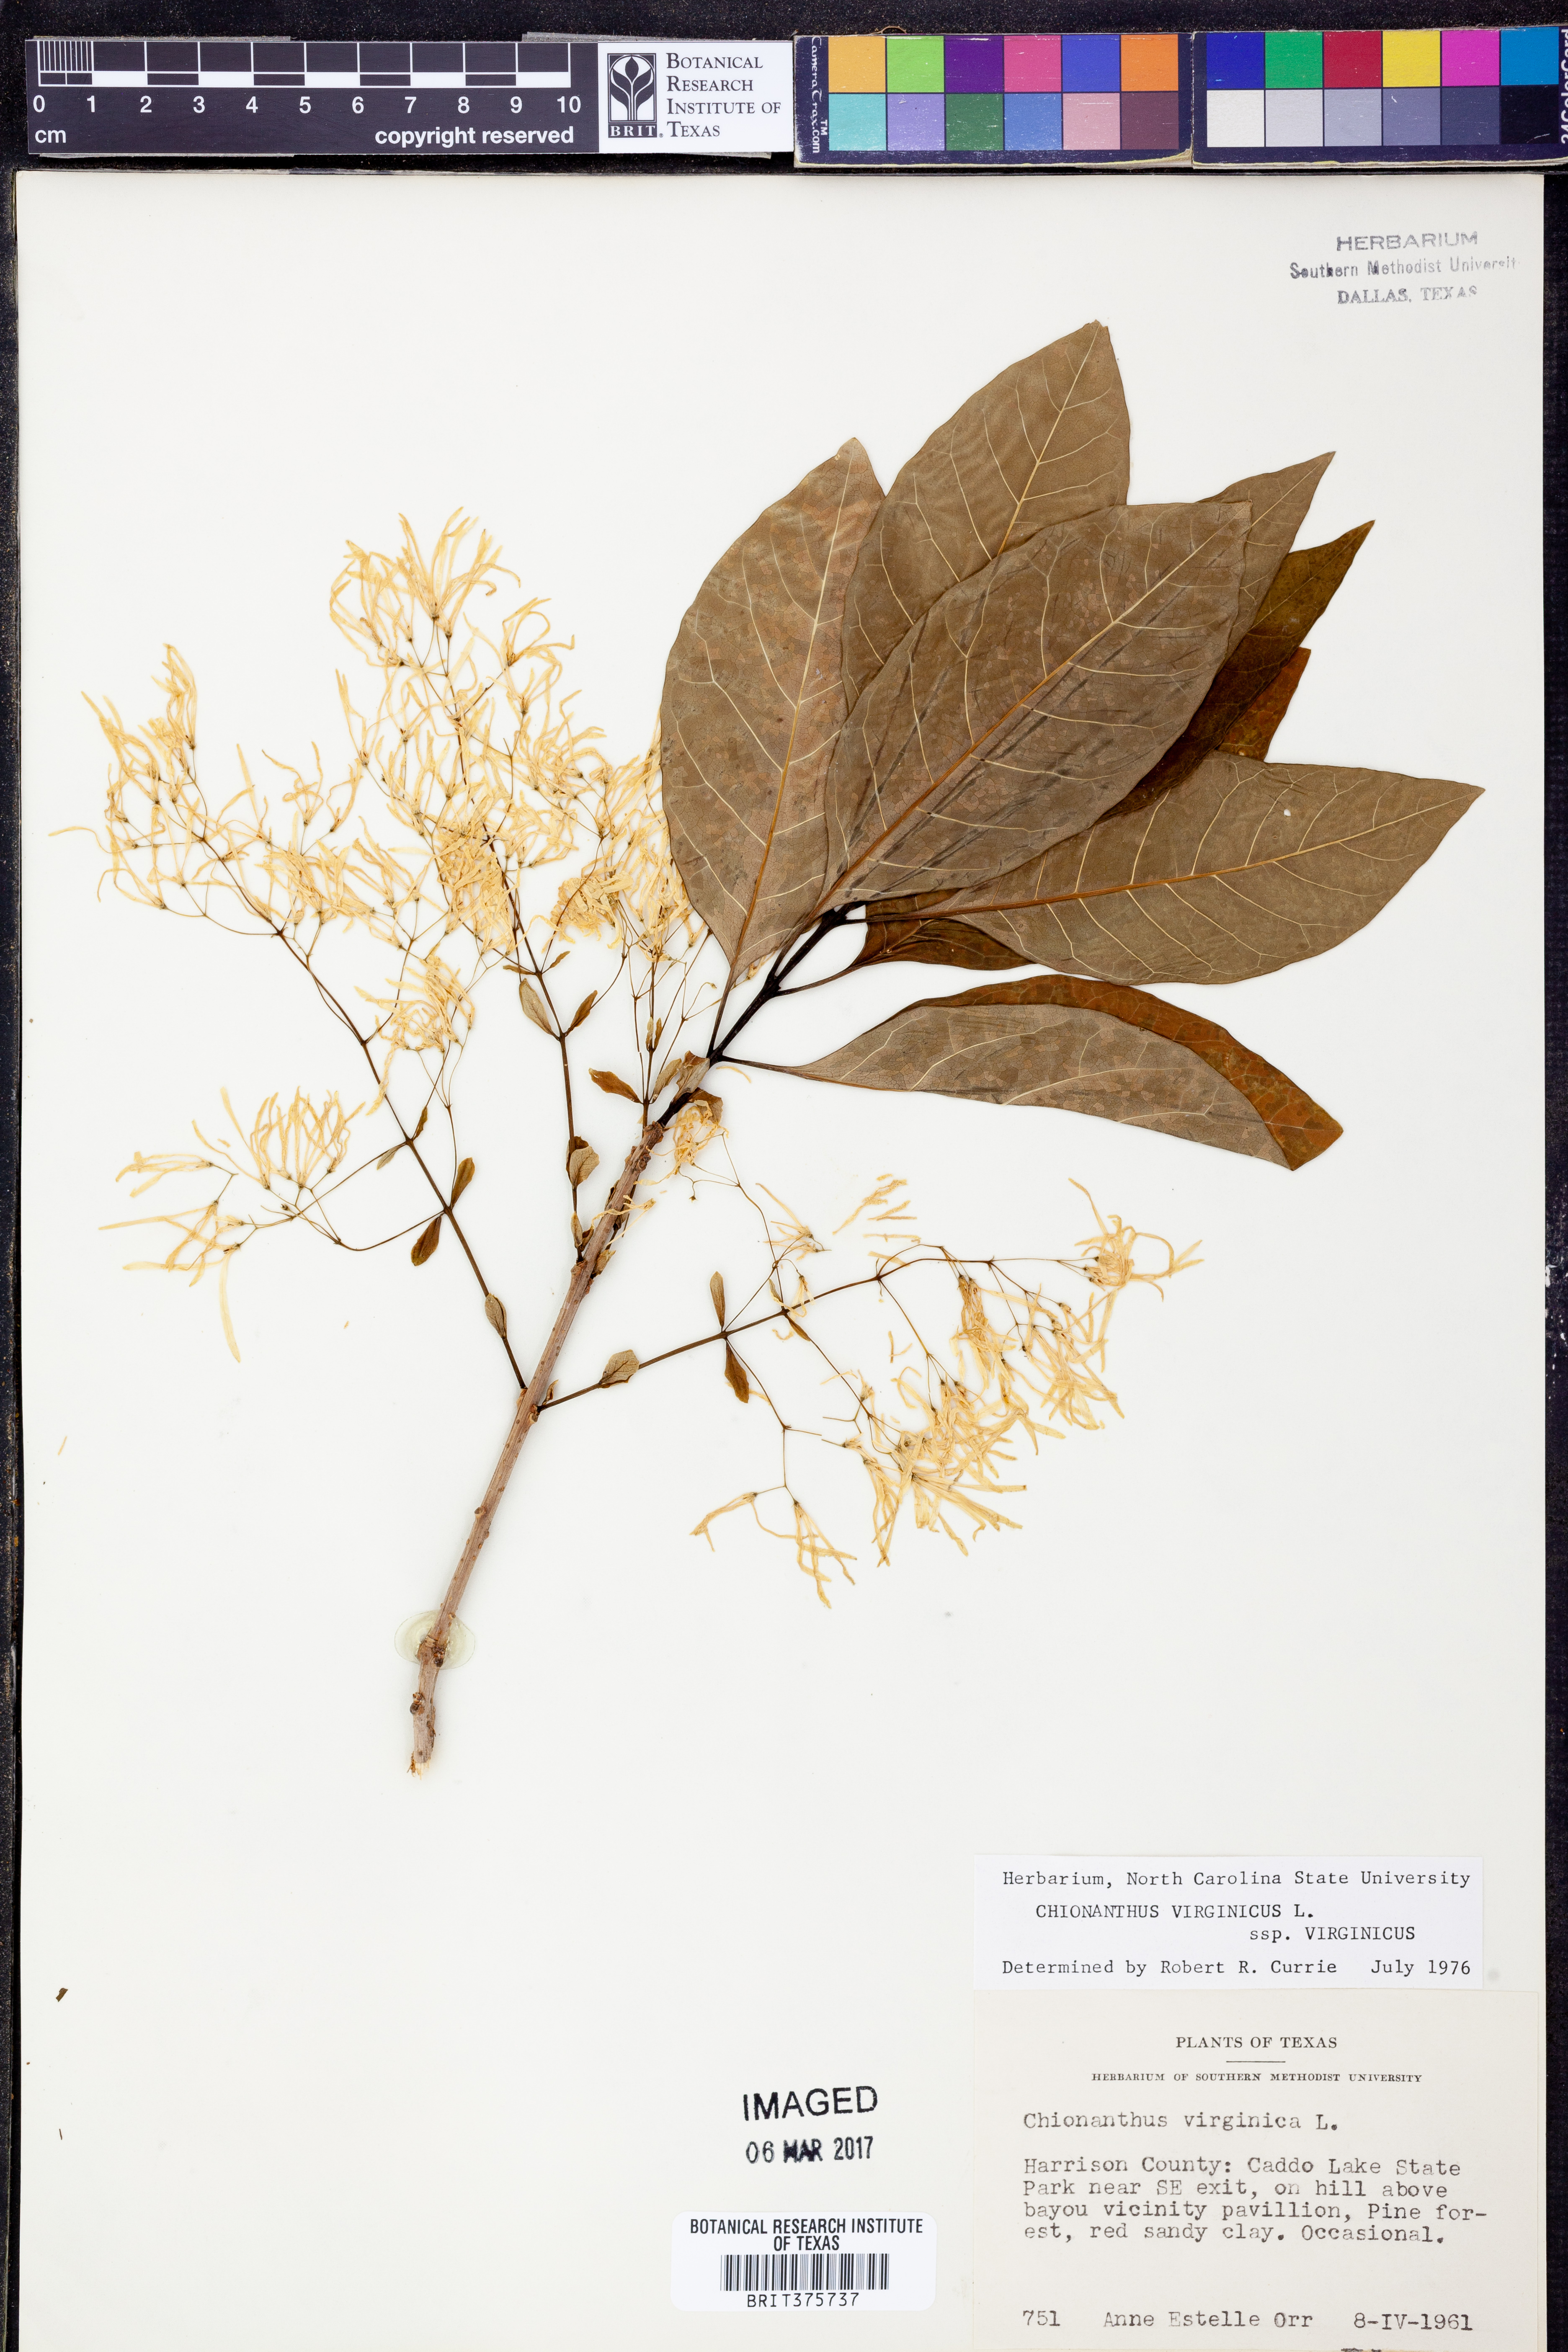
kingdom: Plantae
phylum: Tracheophyta
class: Magnoliopsida
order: Lamiales
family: Oleaceae
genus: Chionanthus
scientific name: Chionanthus virginicus
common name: American fringetree
